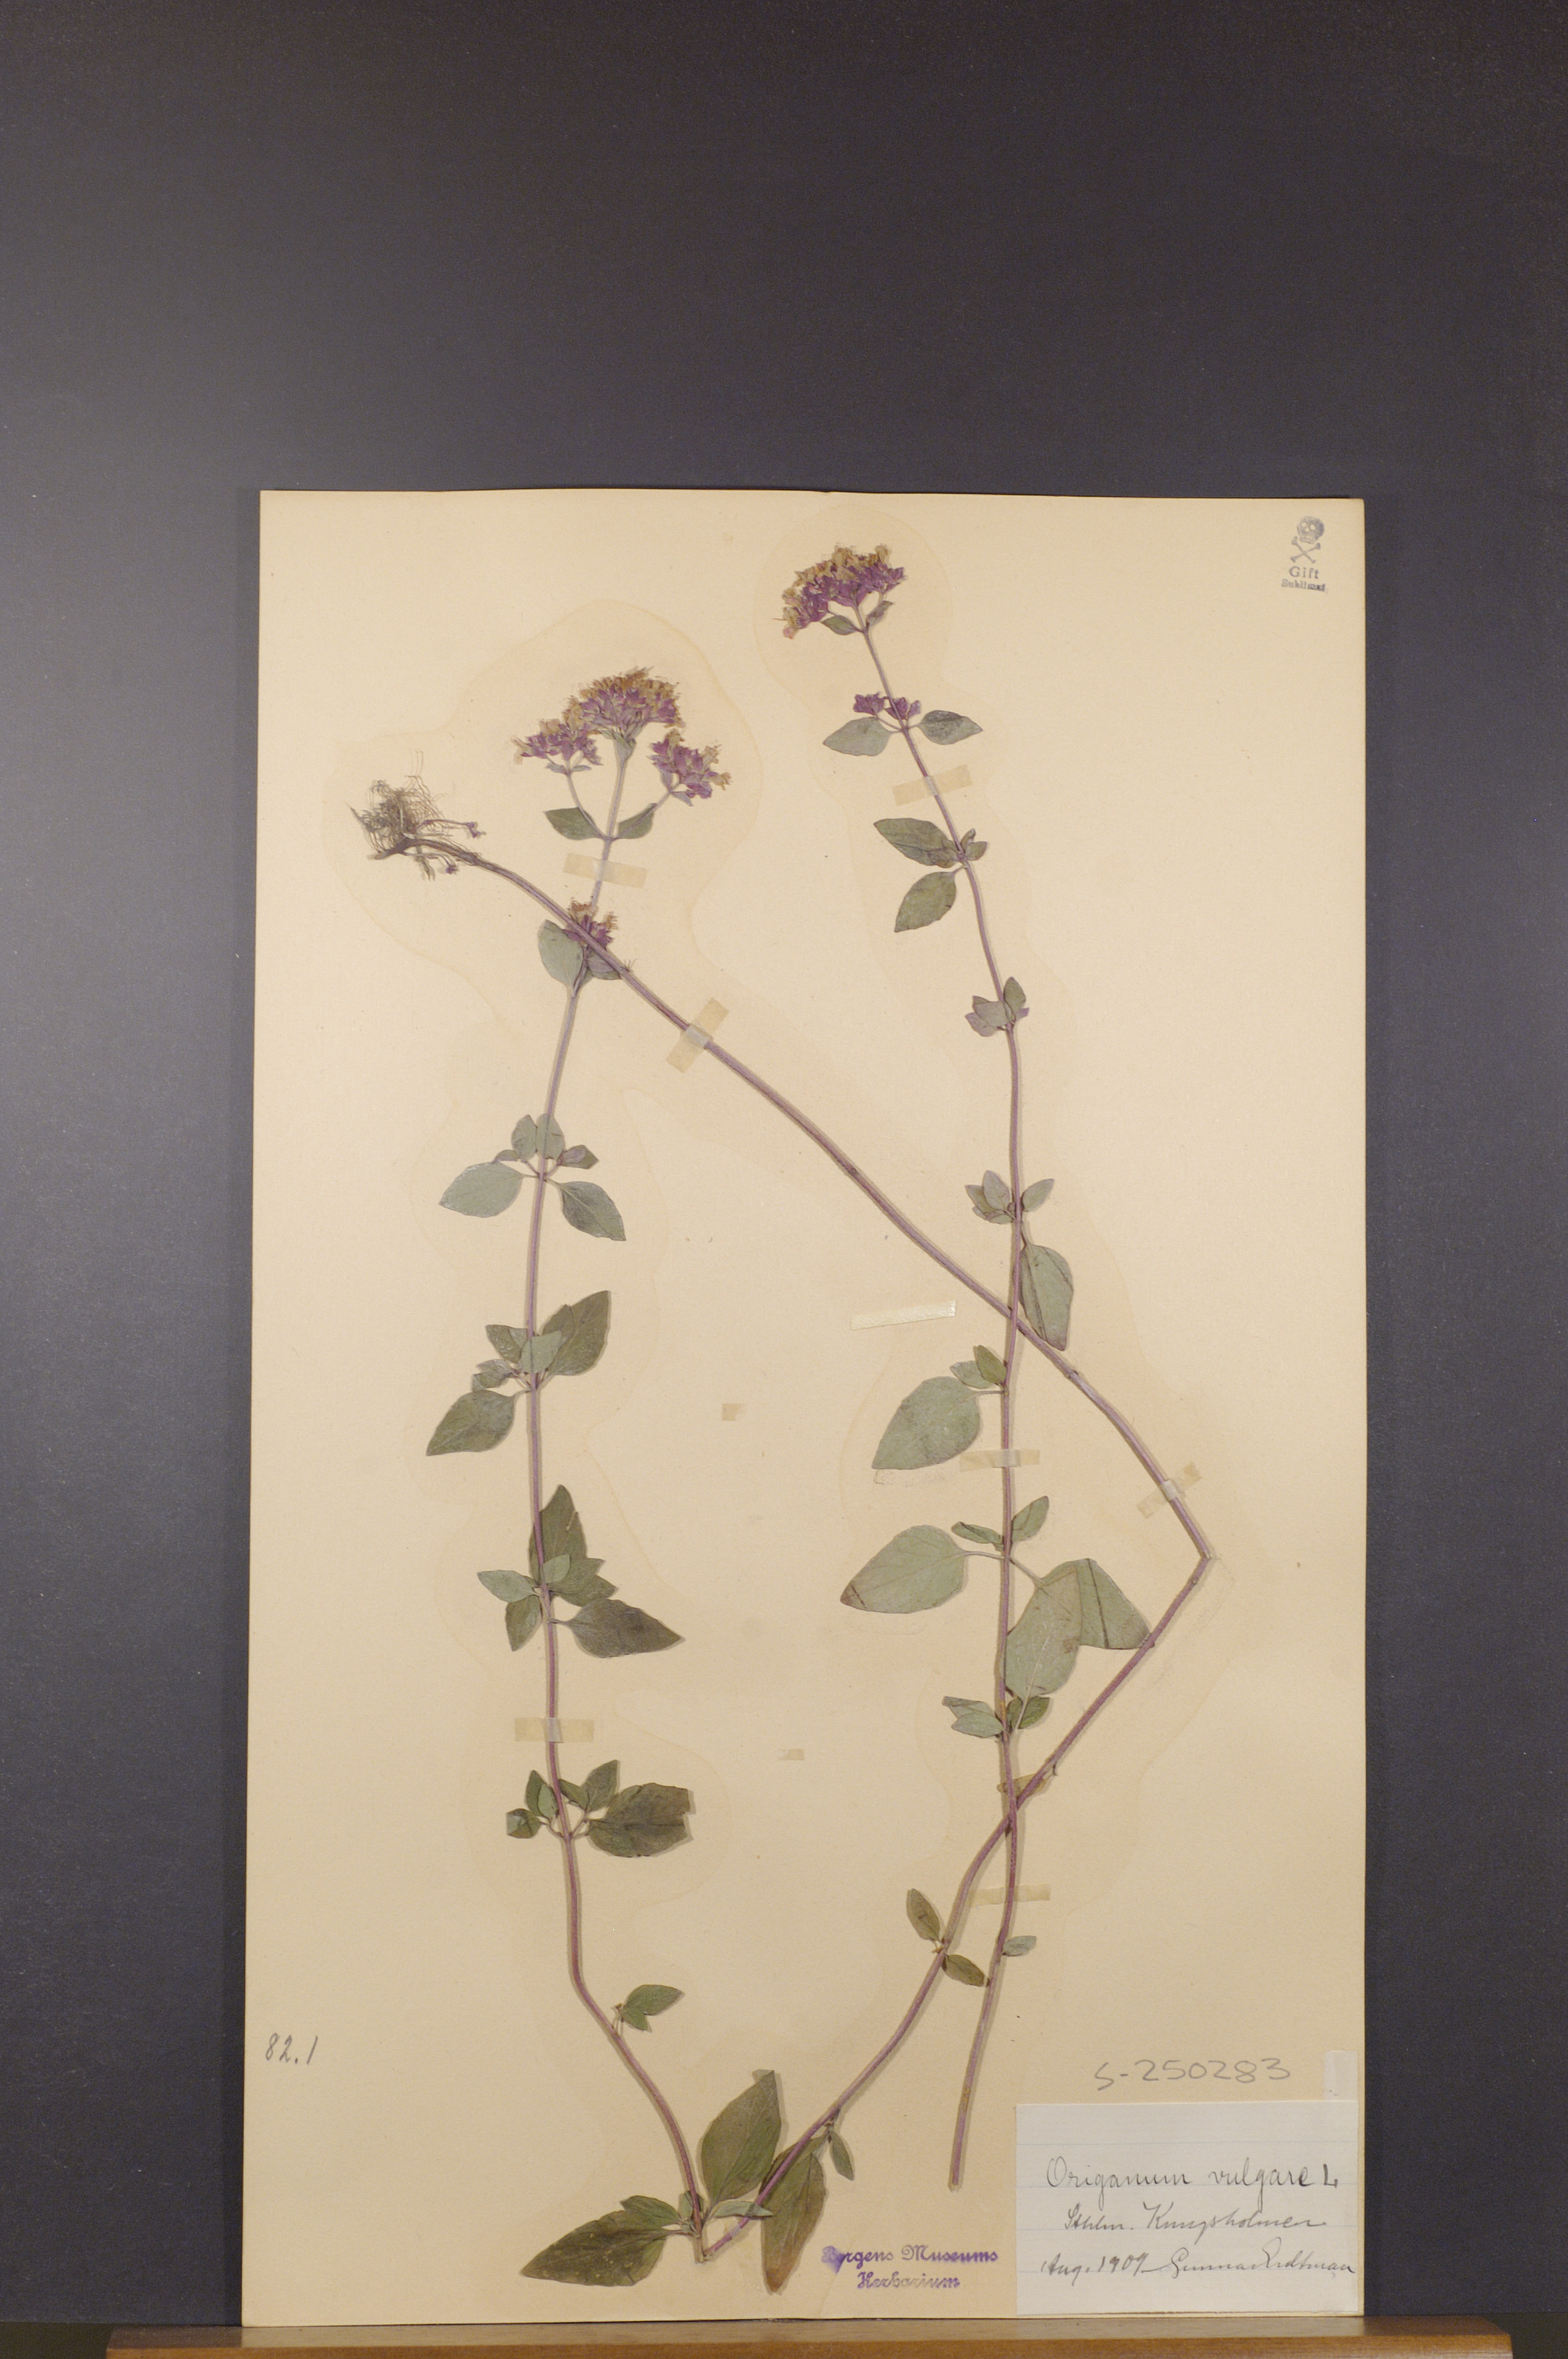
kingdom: Plantae
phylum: Tracheophyta
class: Magnoliopsida
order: Lamiales
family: Lamiaceae
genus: Origanum
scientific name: Origanum vulgare
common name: Wild marjoram
